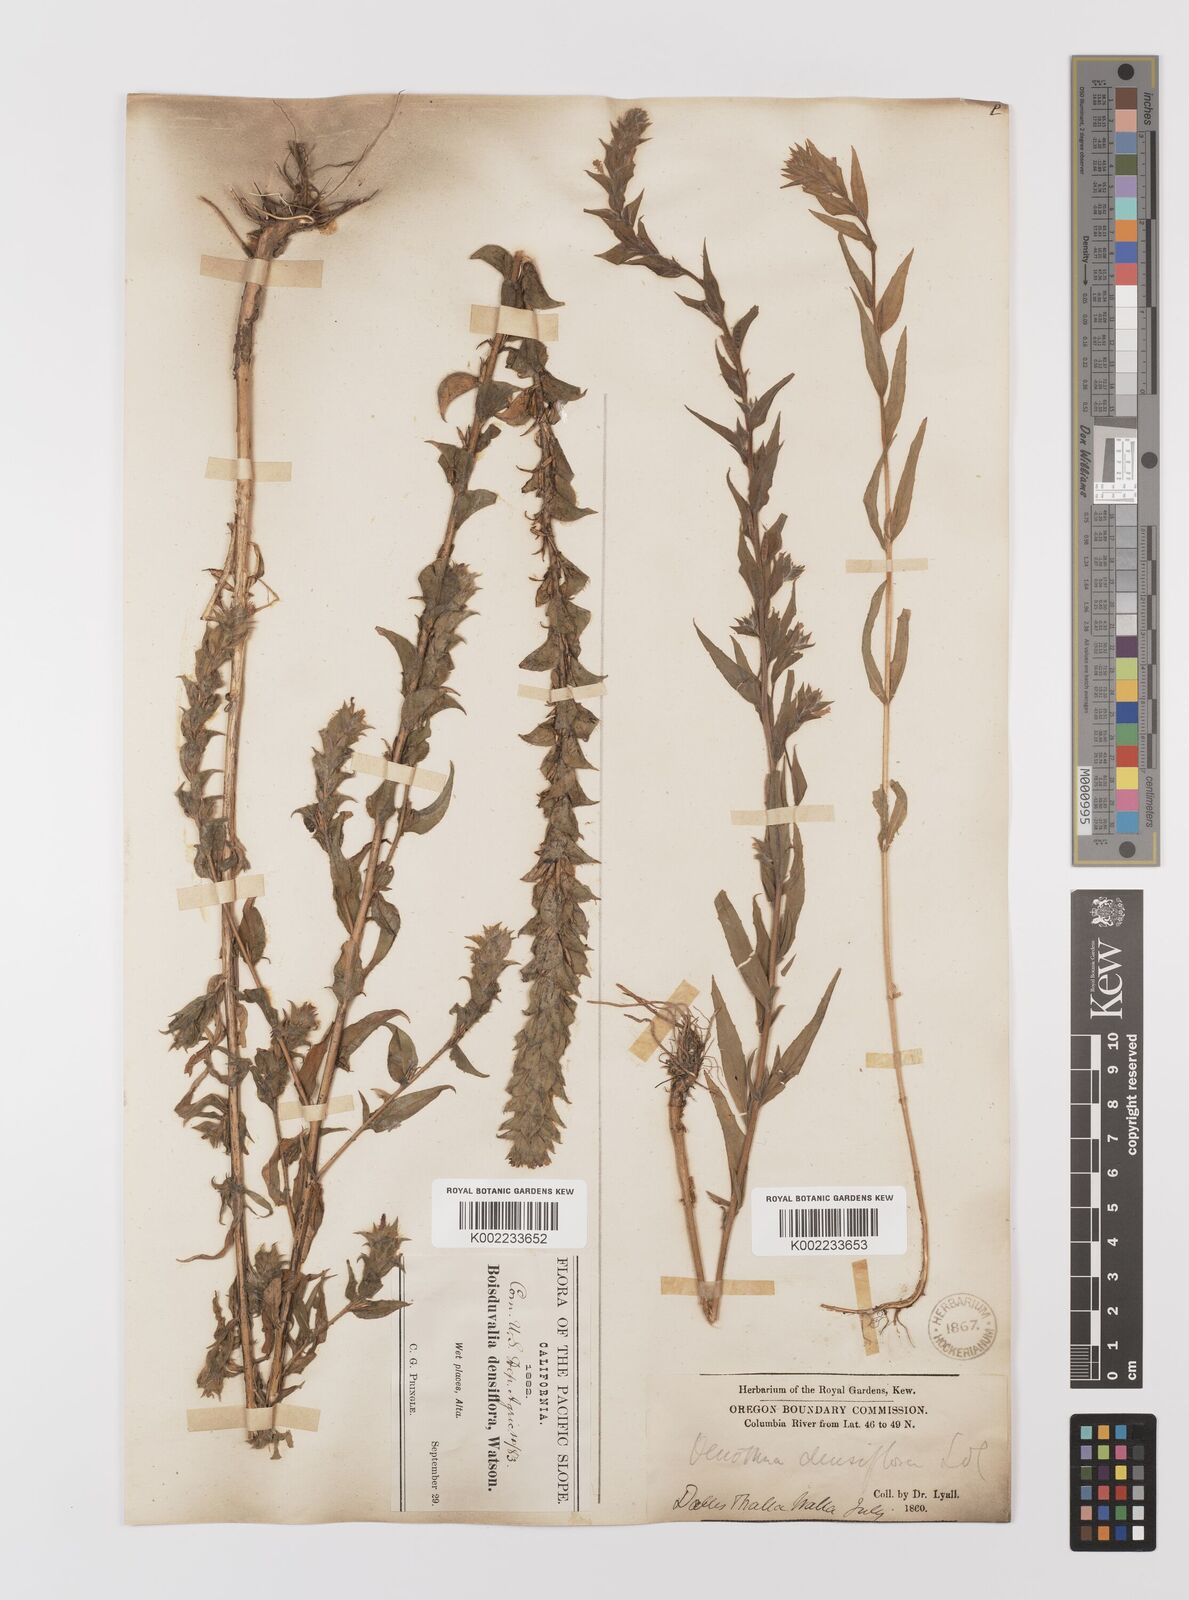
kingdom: Plantae
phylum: Tracheophyta
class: Magnoliopsida
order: Myrtales
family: Onagraceae
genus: Epilobium
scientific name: Epilobium densiflorum
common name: Dense spike-primrose
